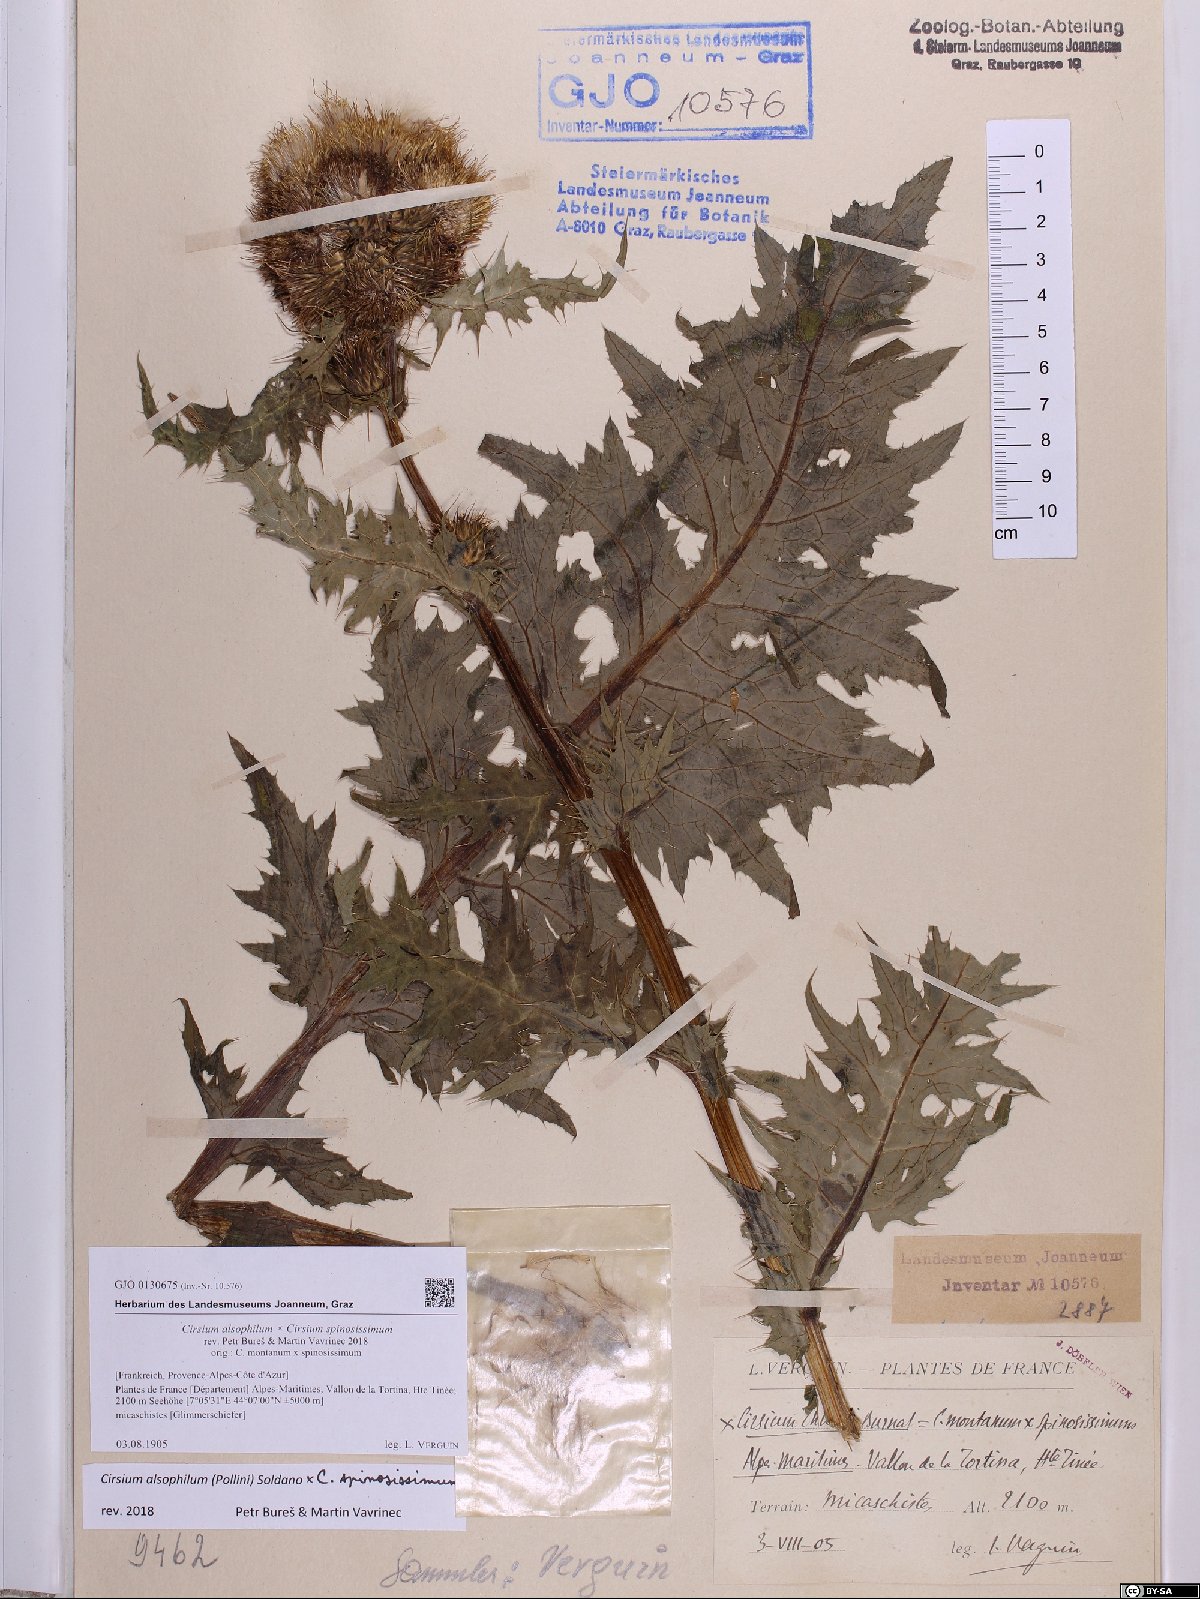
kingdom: Plantae
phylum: Tracheophyta
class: Magnoliopsida
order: Asterales
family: Asteraceae
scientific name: Asteraceae
